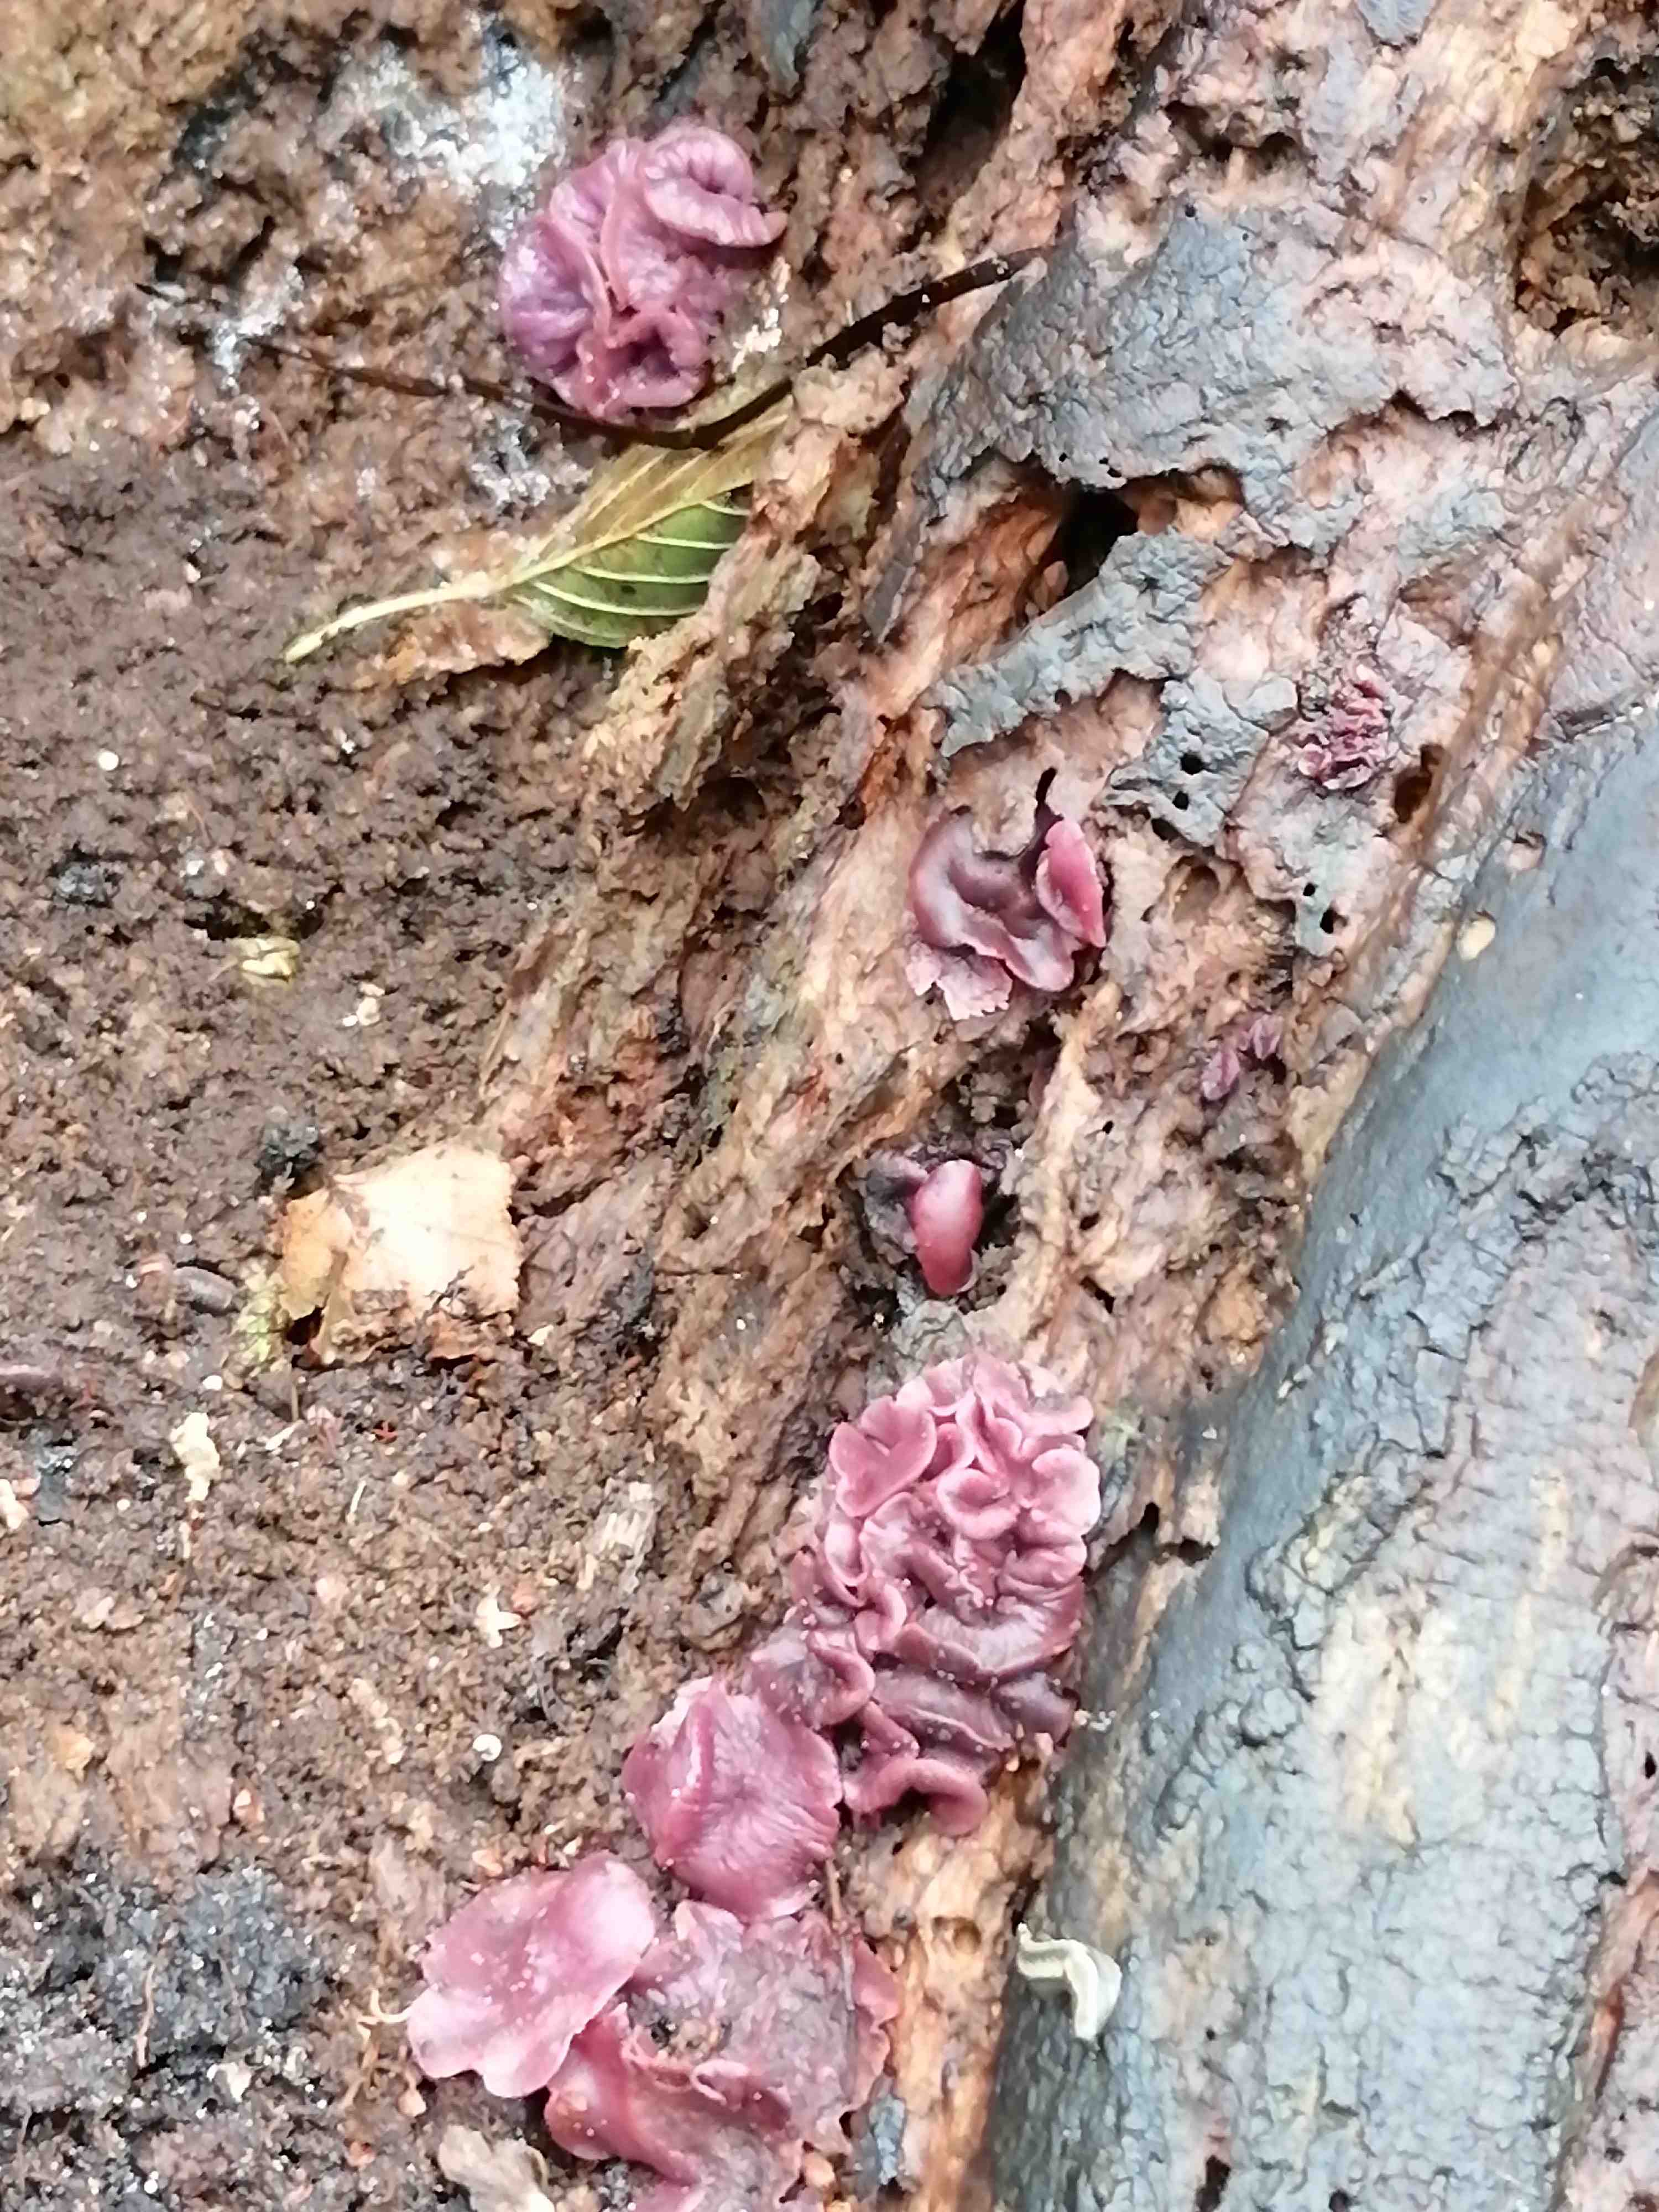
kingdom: Fungi
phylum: Ascomycota
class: Leotiomycetes
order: Helotiales
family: Gelatinodiscaceae
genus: Ascocoryne
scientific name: Ascocoryne cylichnium
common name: stor sejskive
